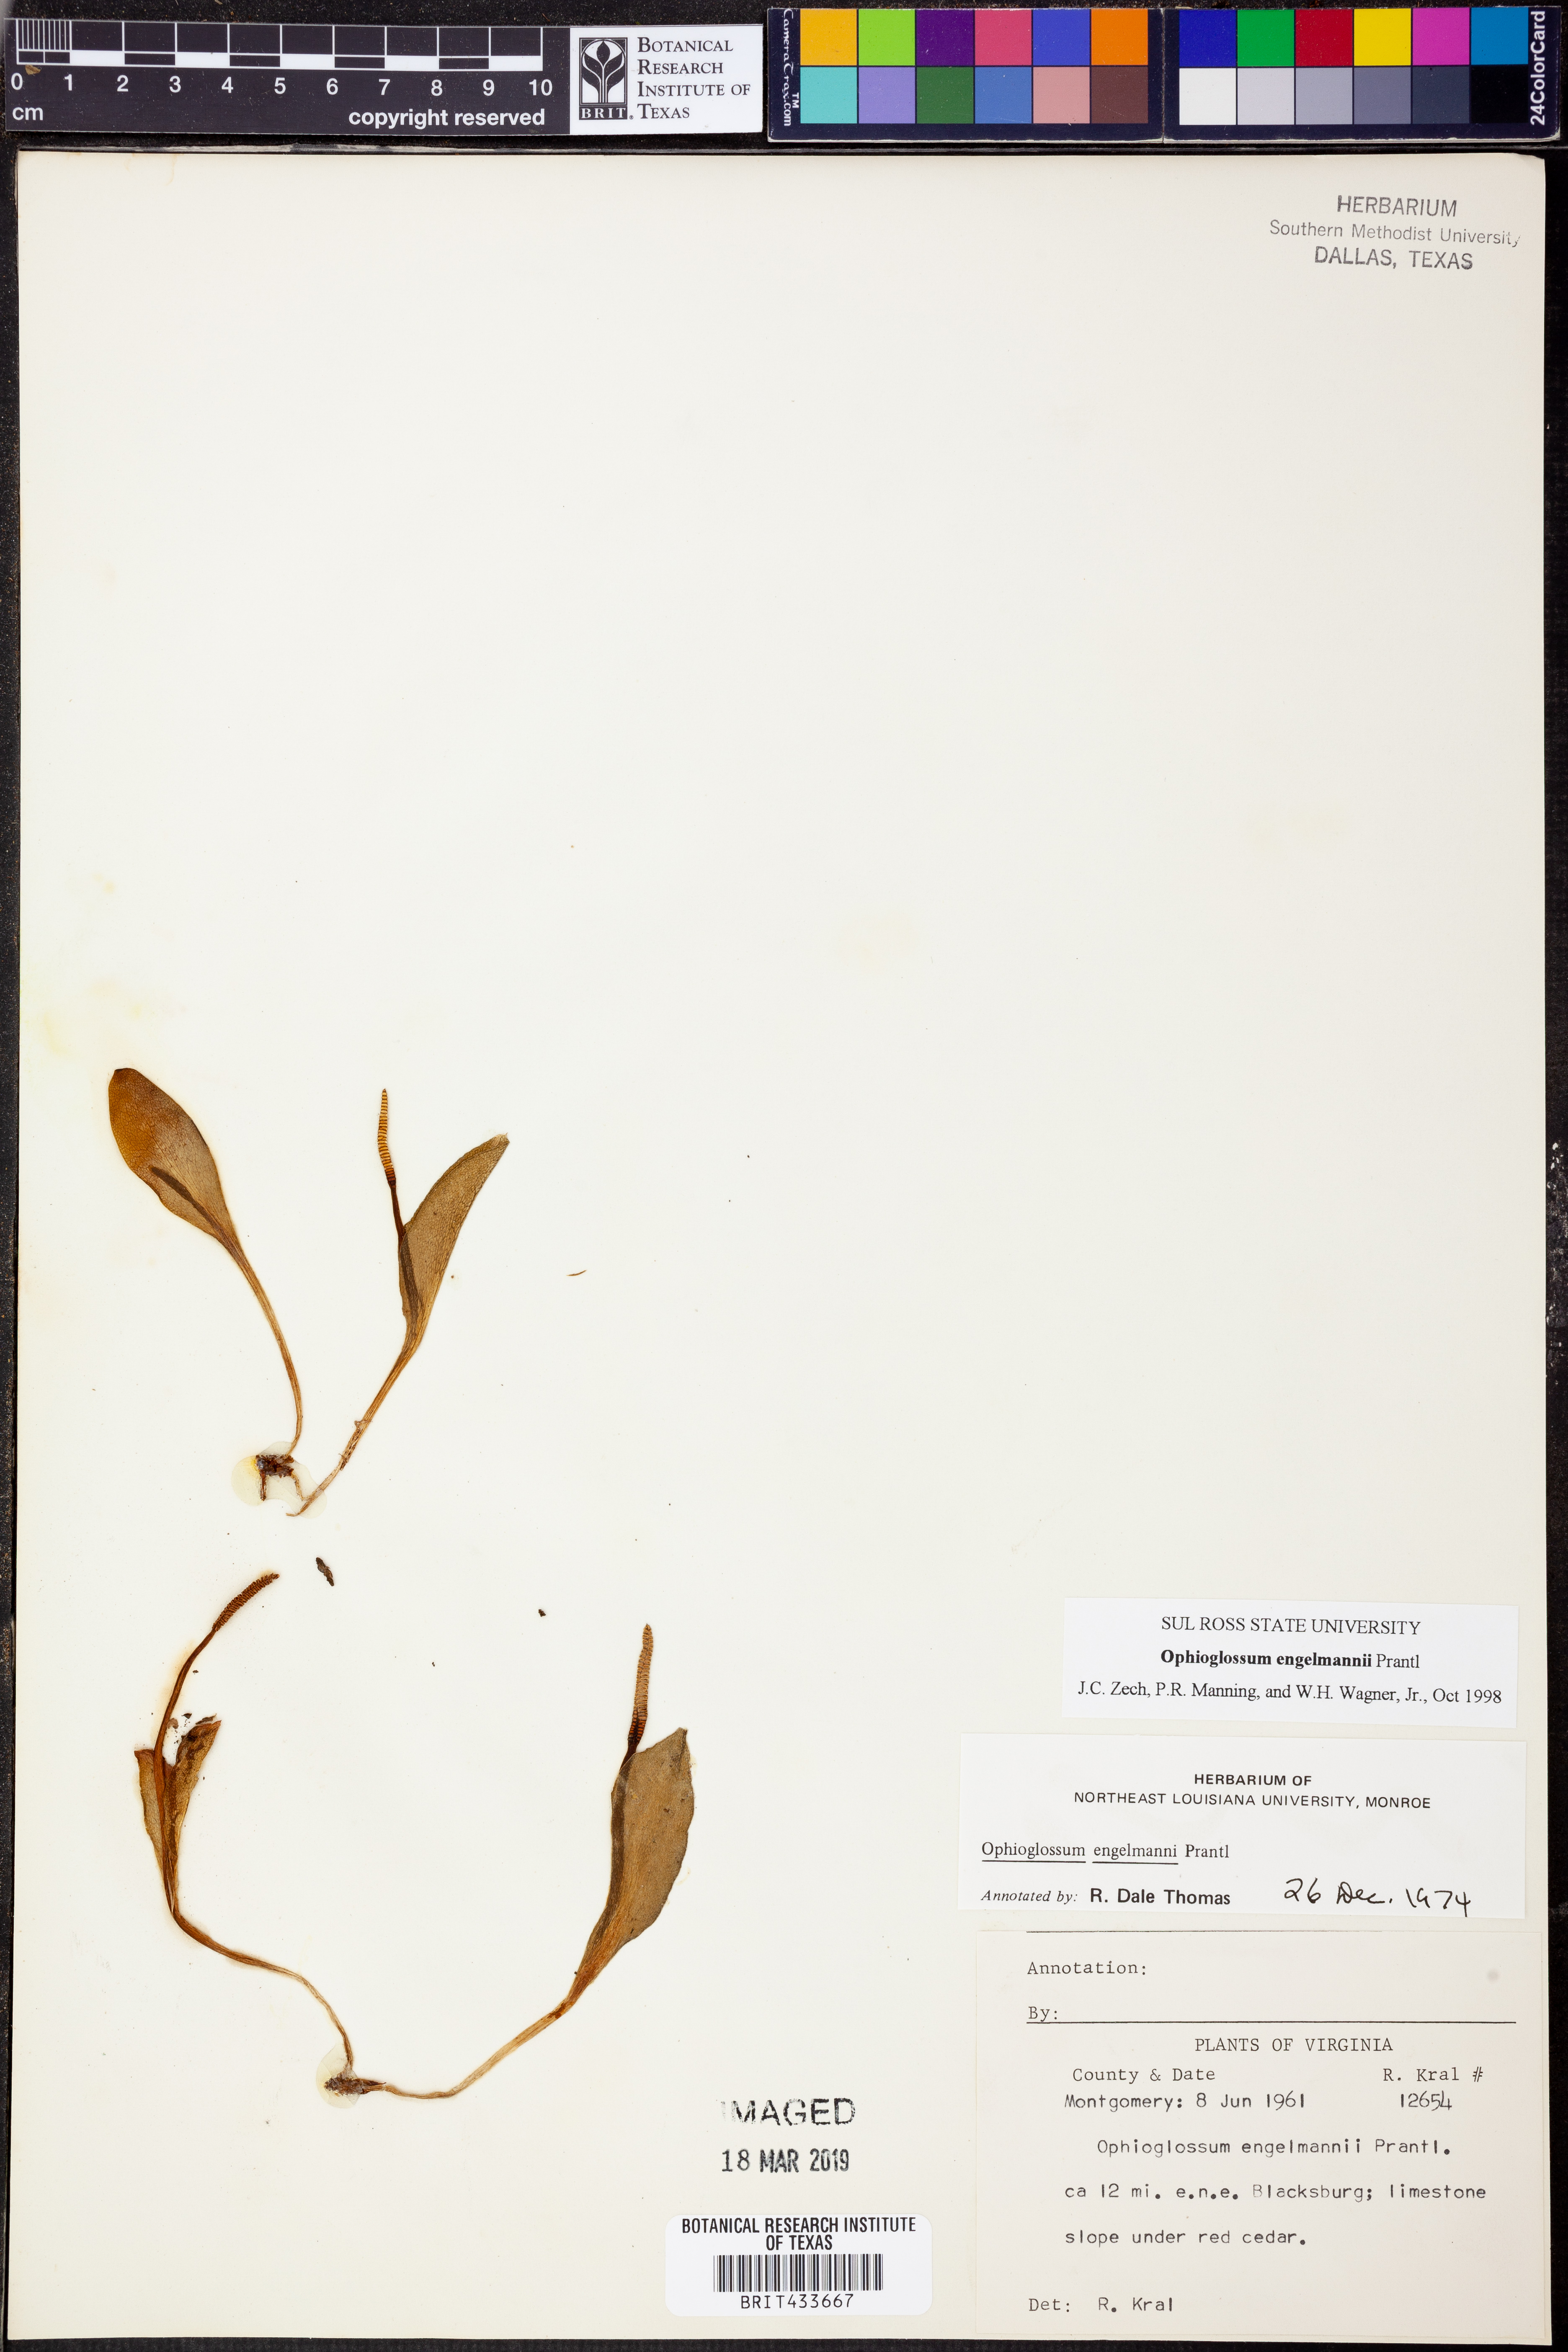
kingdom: Plantae
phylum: Tracheophyta
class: Polypodiopsida
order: Ophioglossales
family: Ophioglossaceae
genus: Ophioglossum
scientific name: Ophioglossum engelmannii
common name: Limestone adder's-tongue
